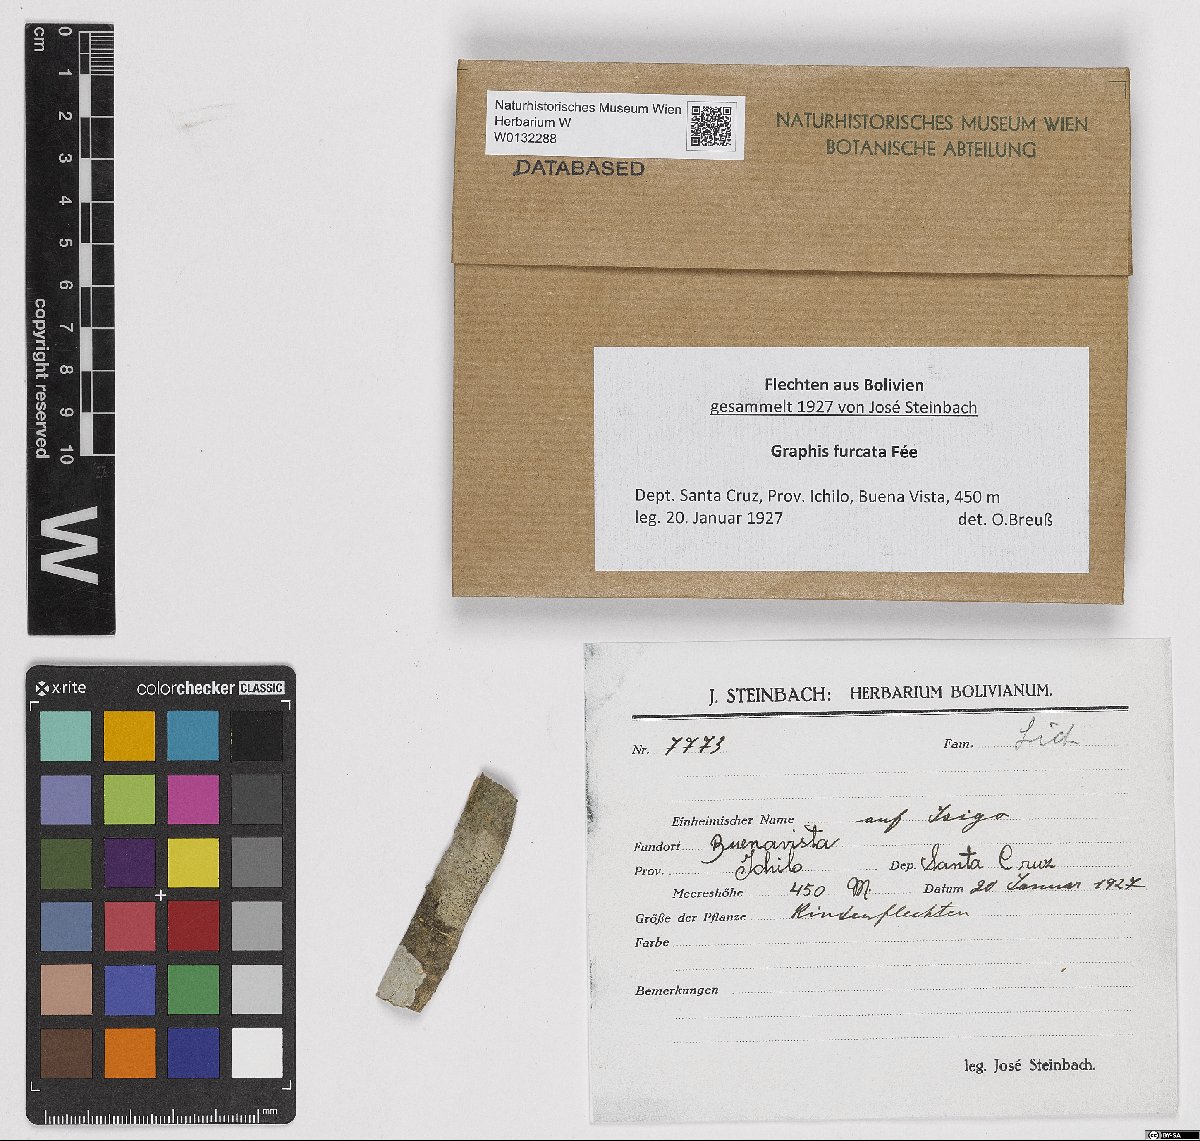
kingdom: Fungi
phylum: Ascomycota
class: Lecanoromycetes
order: Ostropales
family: Graphidaceae
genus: Graphis
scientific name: Graphis furcata
